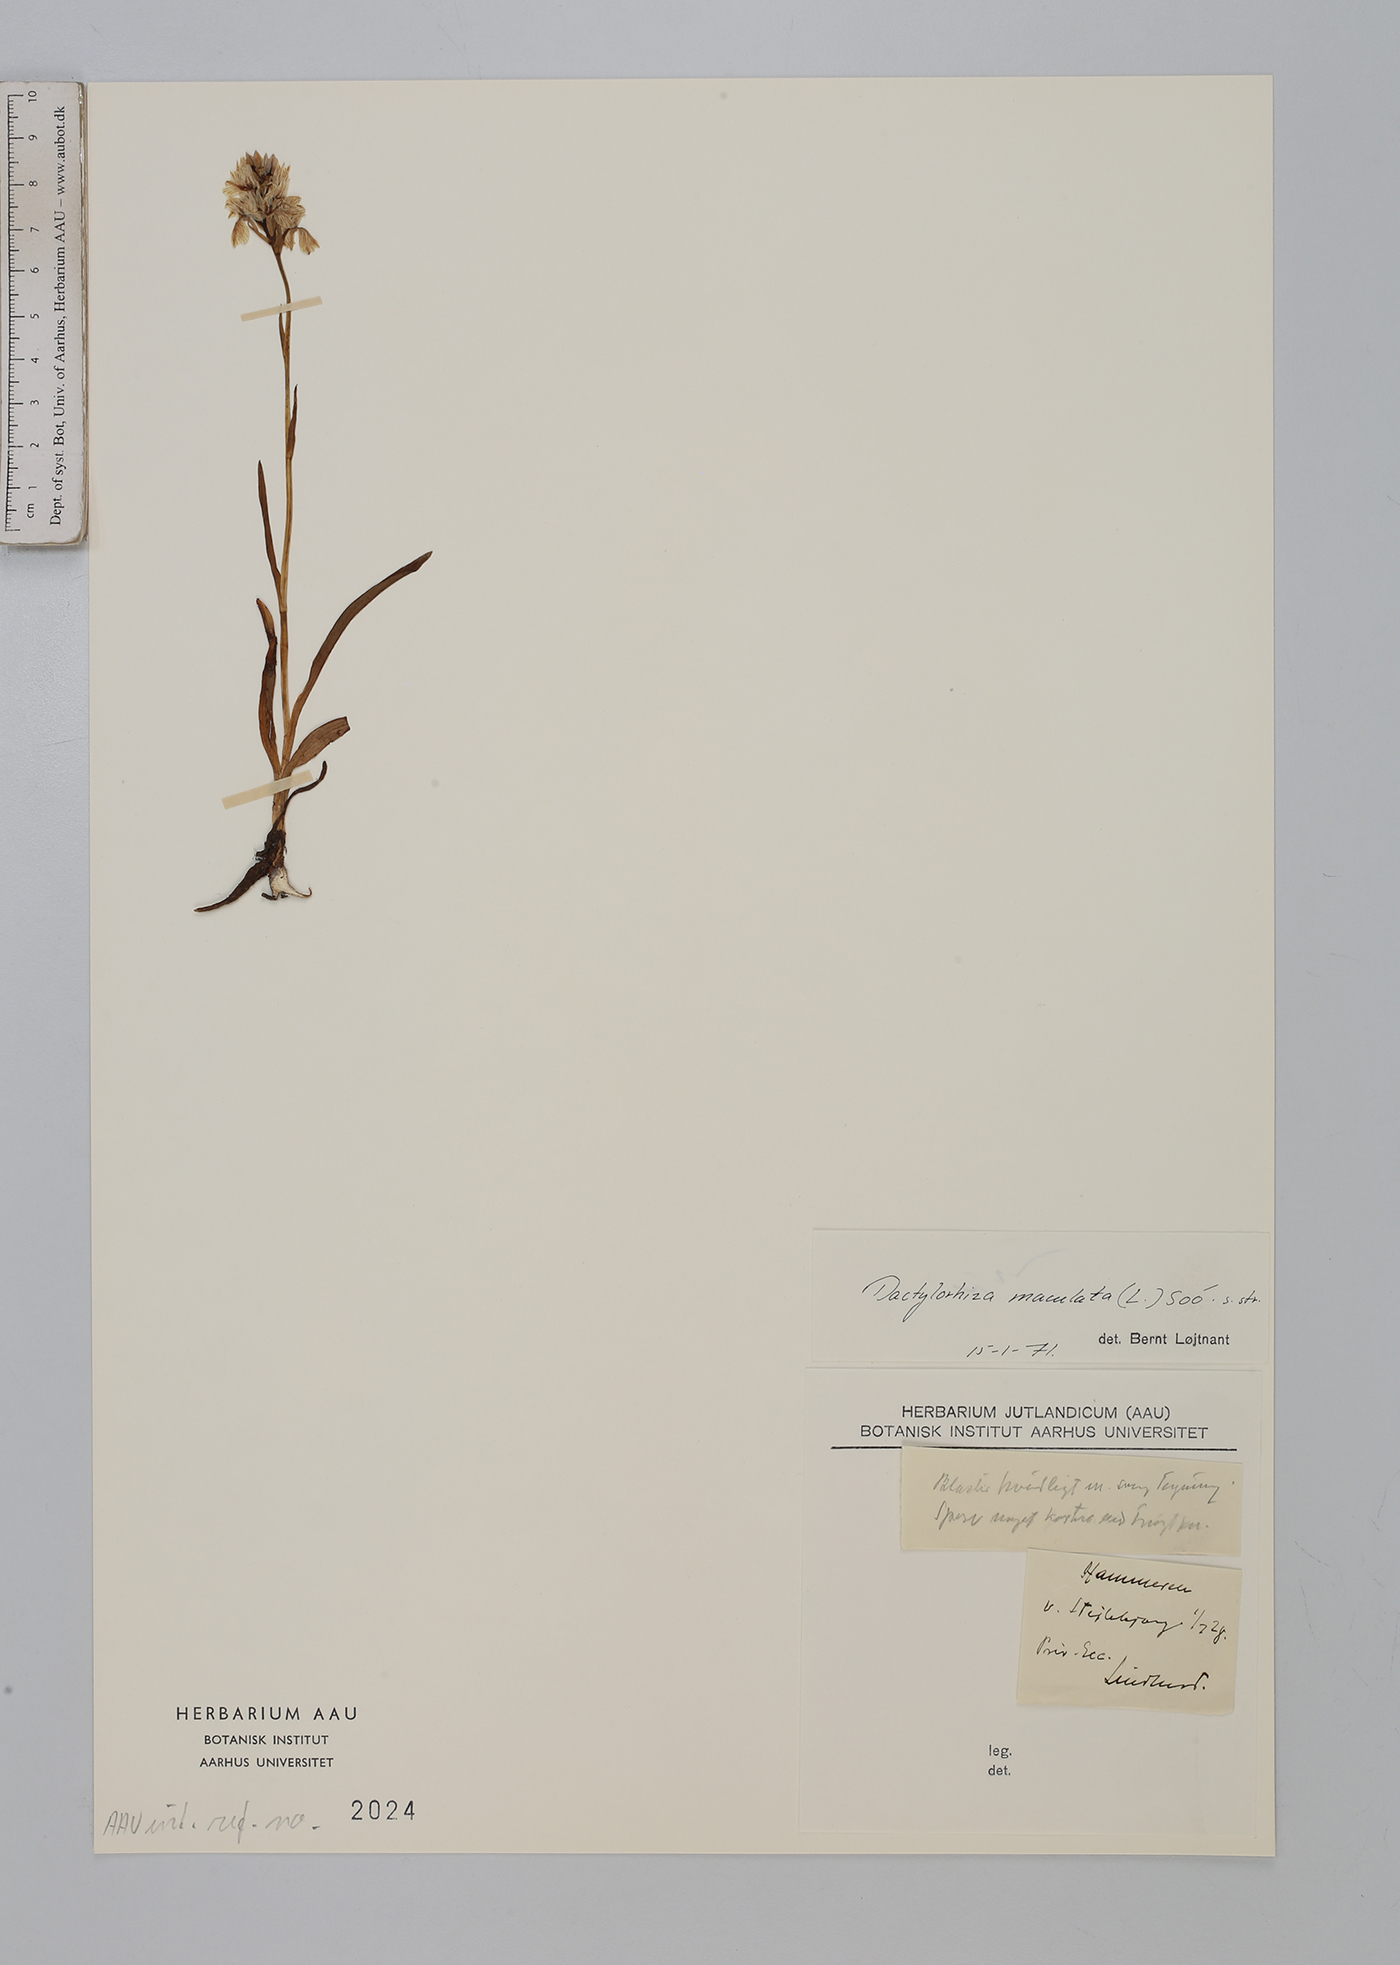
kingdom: Plantae
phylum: Tracheophyta
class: Liliopsida
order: Asparagales
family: Orchidaceae
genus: Dactylorhiza
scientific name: Dactylorhiza maculata
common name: Heath spotted-orchid
